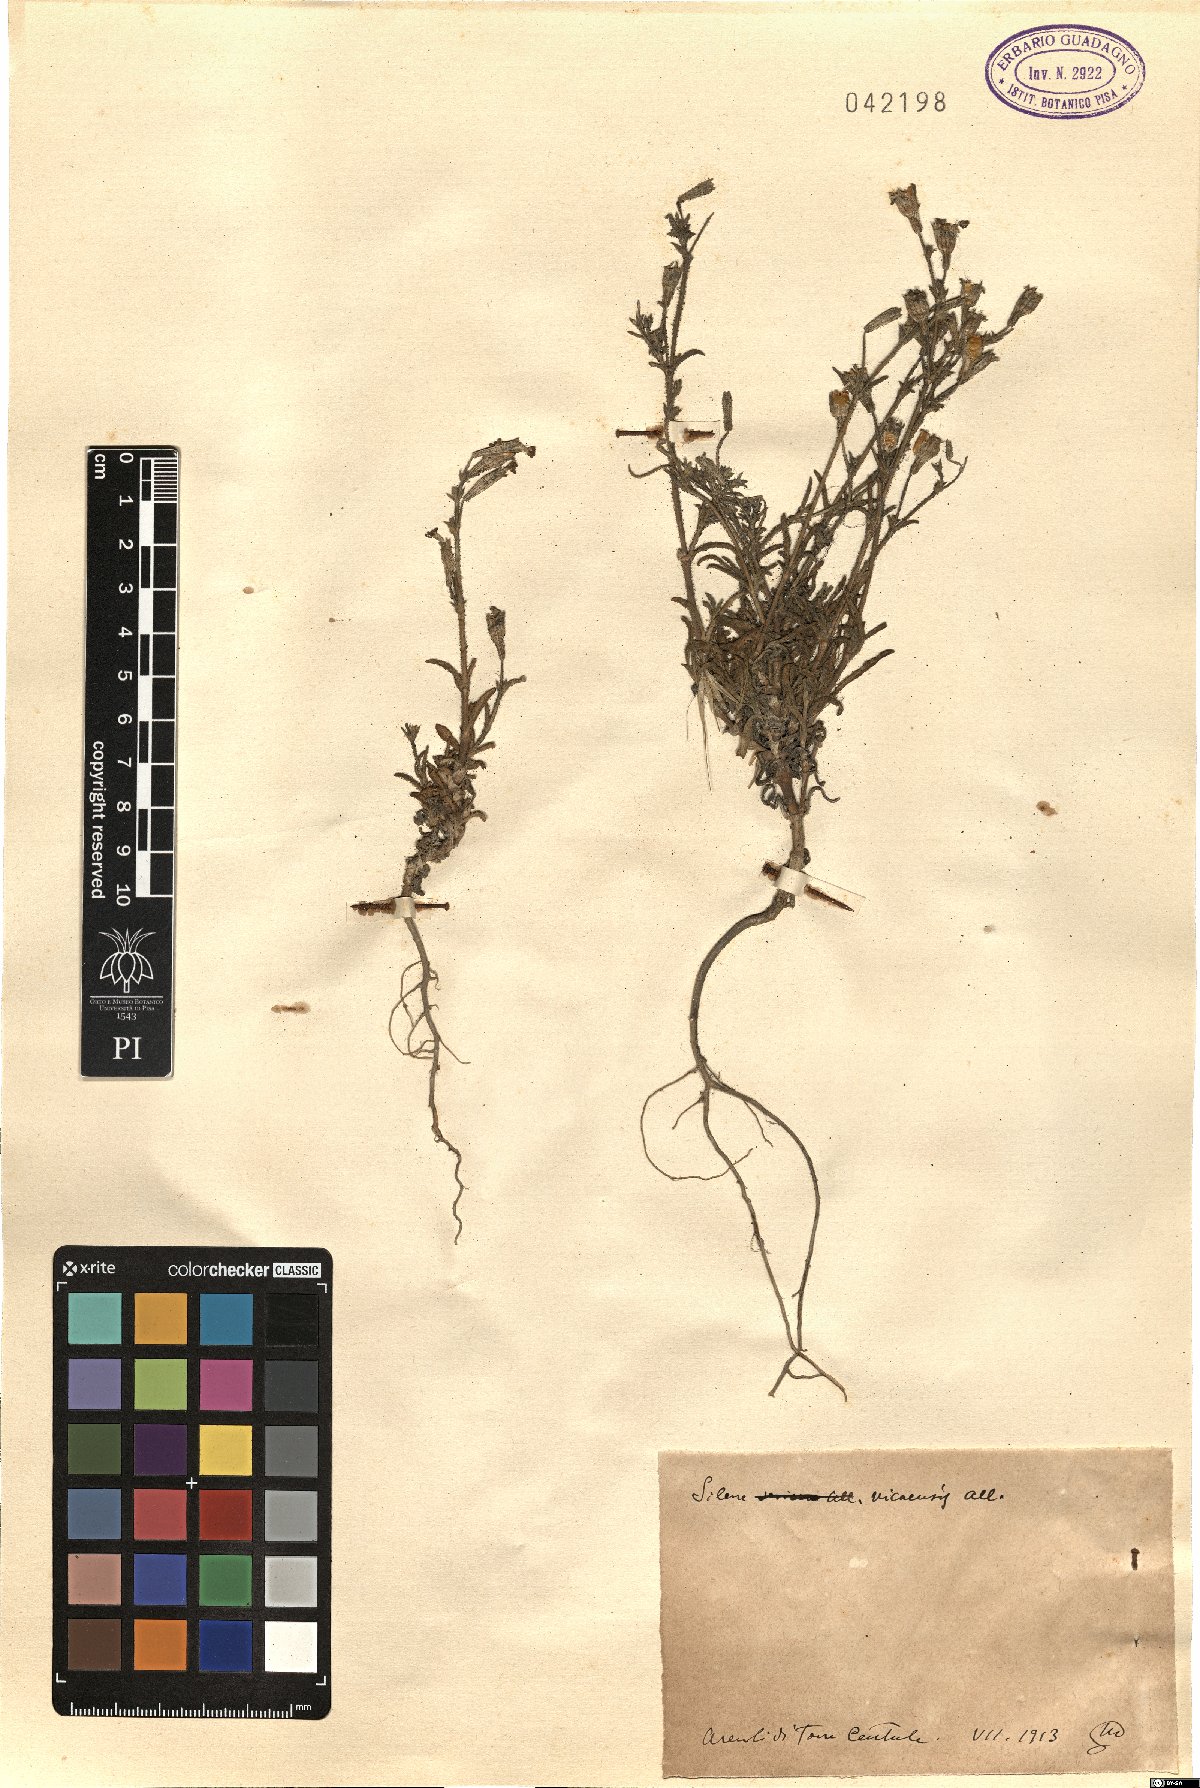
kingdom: Plantae
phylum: Tracheophyta
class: Magnoliopsida
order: Caryophyllales
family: Caryophyllaceae
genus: Silene
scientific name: Silene nicaeensis
